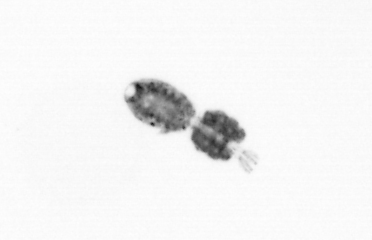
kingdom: Animalia
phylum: Arthropoda
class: Copepoda
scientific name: Copepoda
